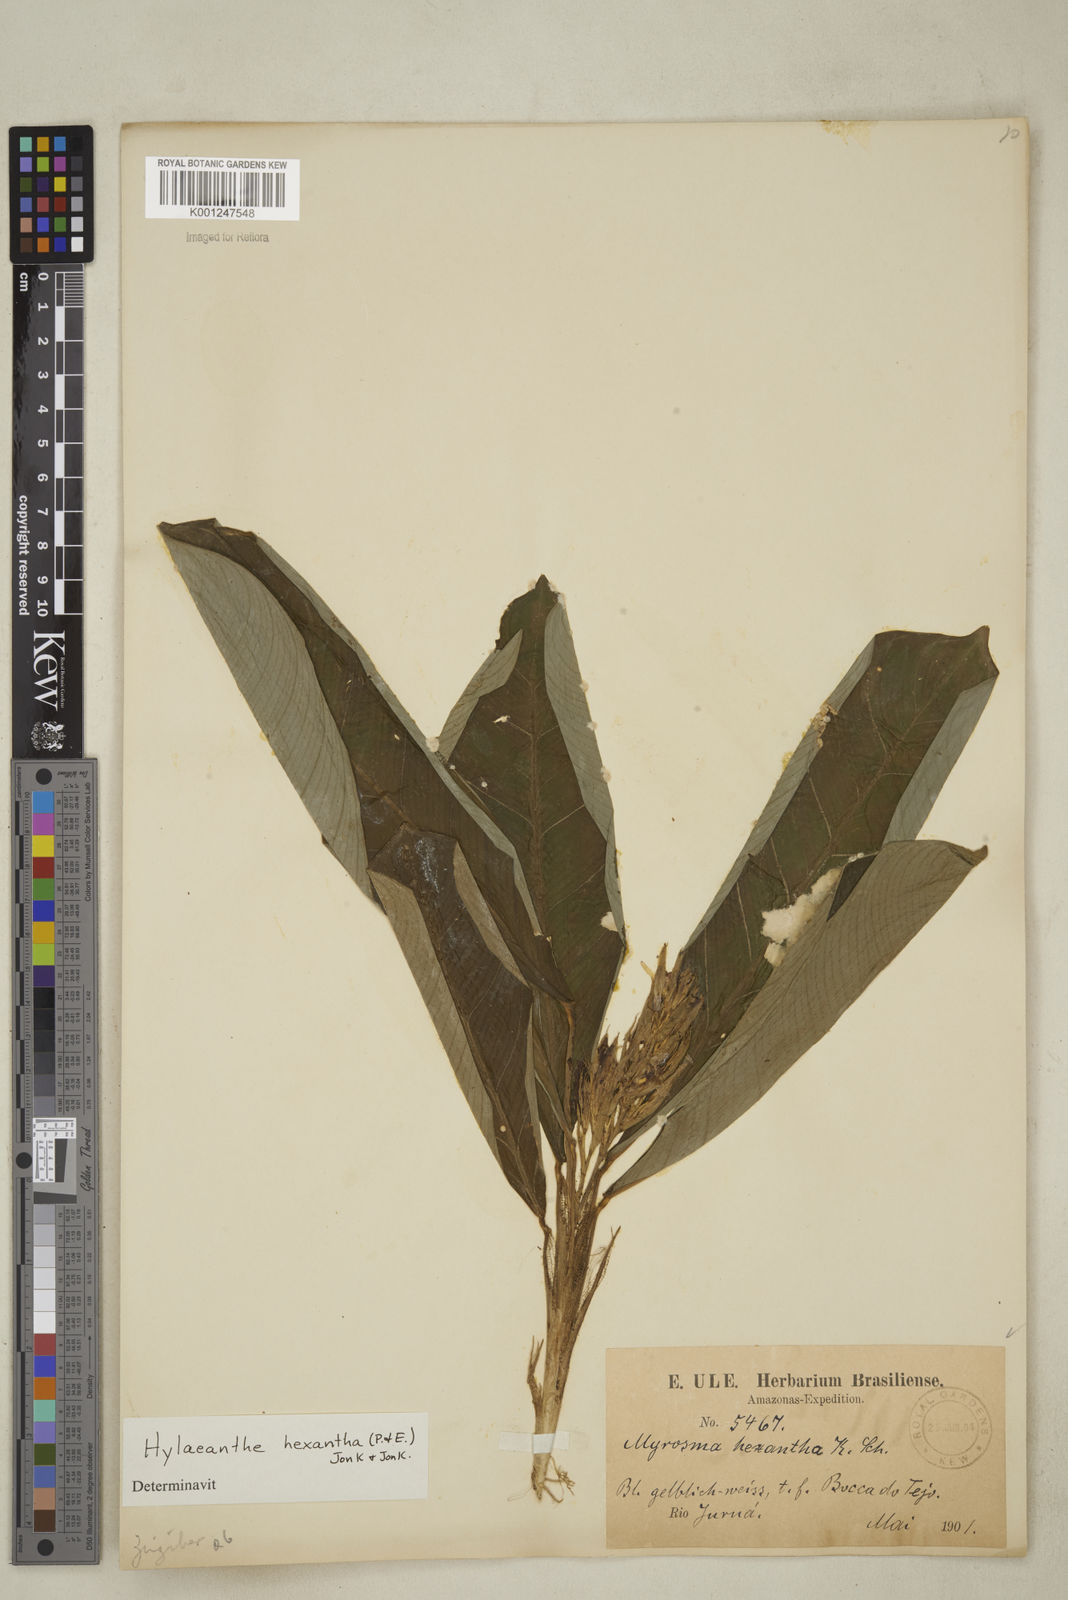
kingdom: Plantae
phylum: Tracheophyta
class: Liliopsida
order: Zingiberales
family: Marantaceae
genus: Hylaeanthe
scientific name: Hylaeanthe hexantha
